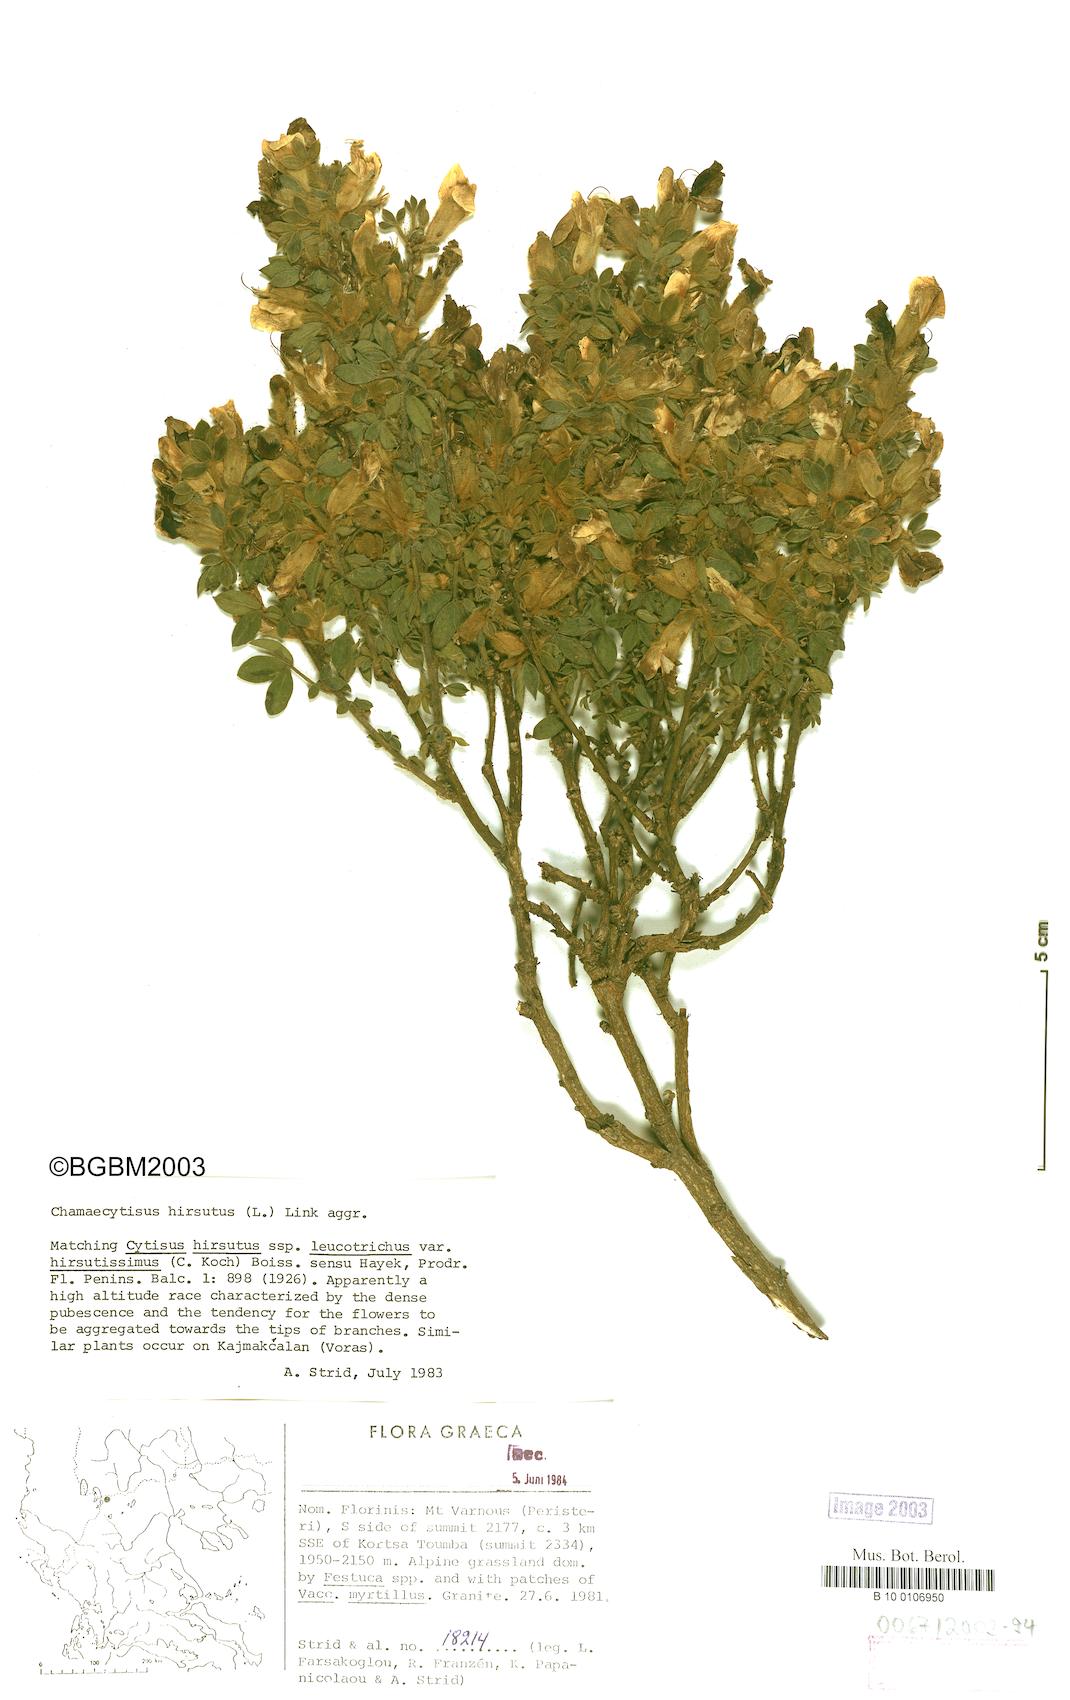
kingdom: Plantae
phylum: Tracheophyta
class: Magnoliopsida
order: Fabales
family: Fabaceae
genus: Chamaecytisus
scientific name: Chamaecytisus hirsutus
